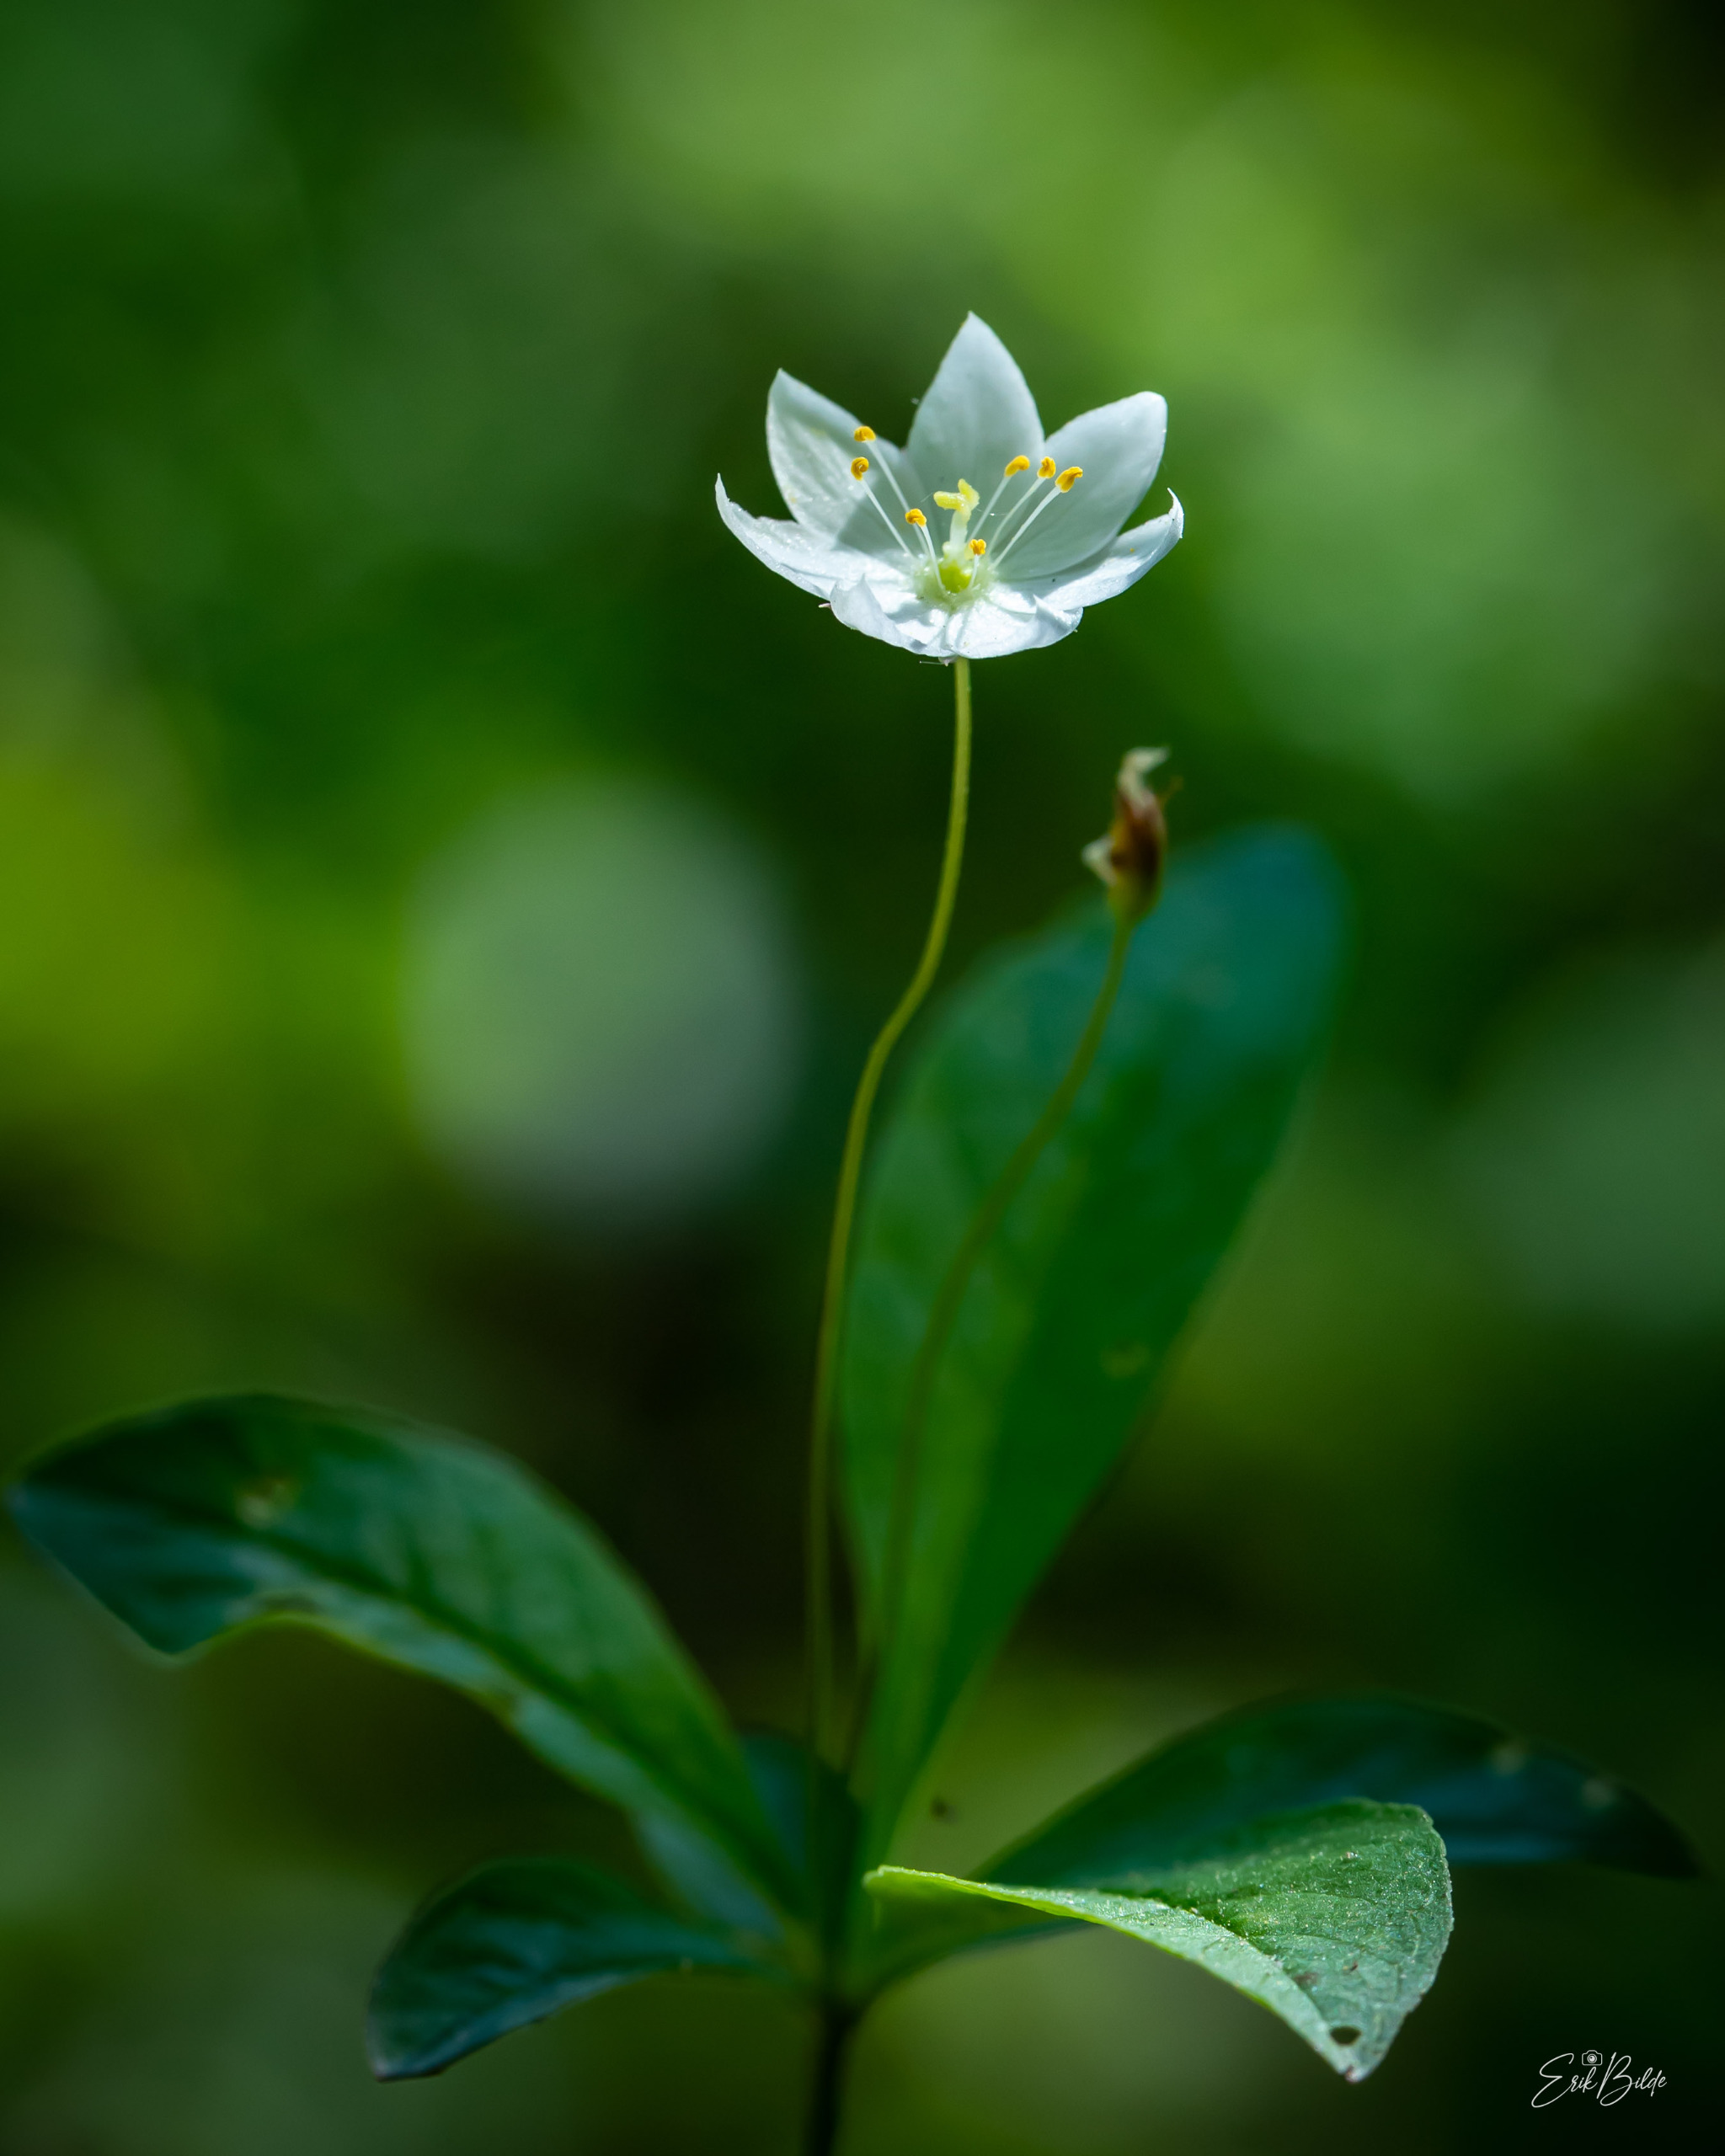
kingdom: Plantae
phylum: Tracheophyta
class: Magnoliopsida
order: Ericales
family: Primulaceae
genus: Lysimachia
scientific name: Lysimachia europaea
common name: Skovstjerne
